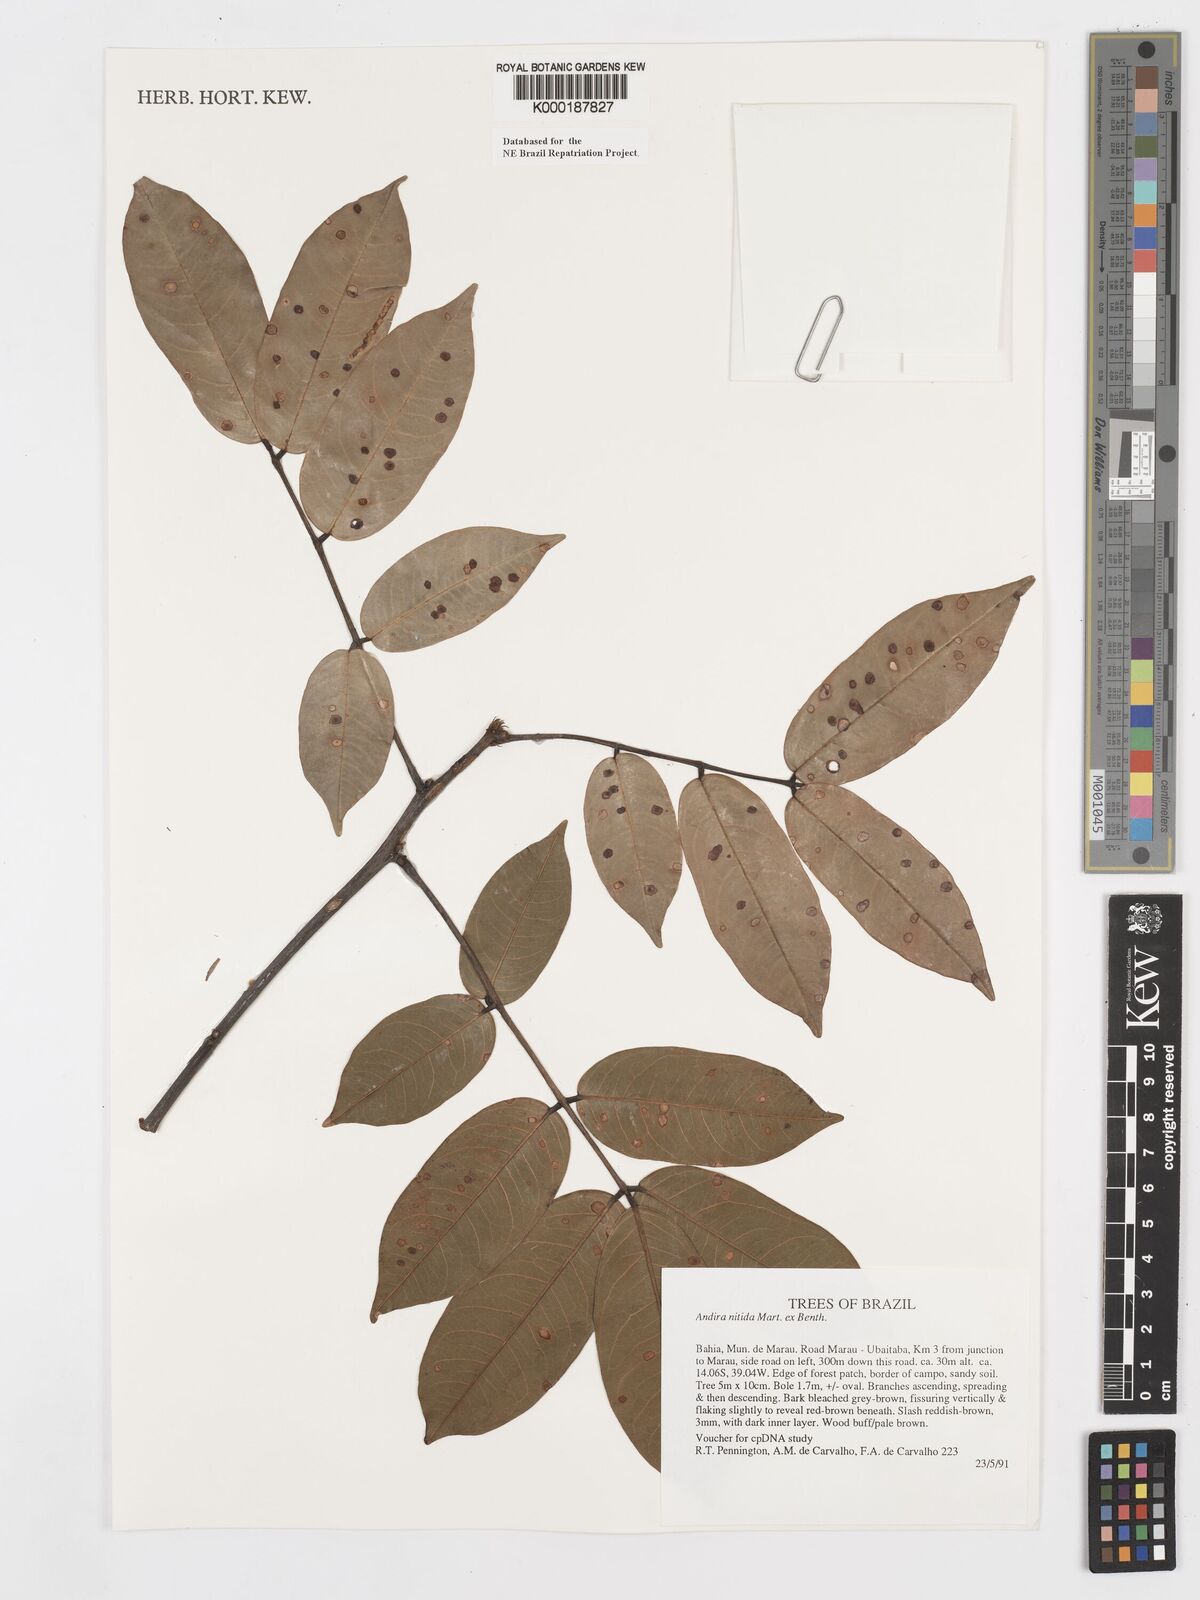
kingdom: Plantae
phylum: Tracheophyta
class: Magnoliopsida
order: Fabales
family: Fabaceae
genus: Andira
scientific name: Andira nitida
